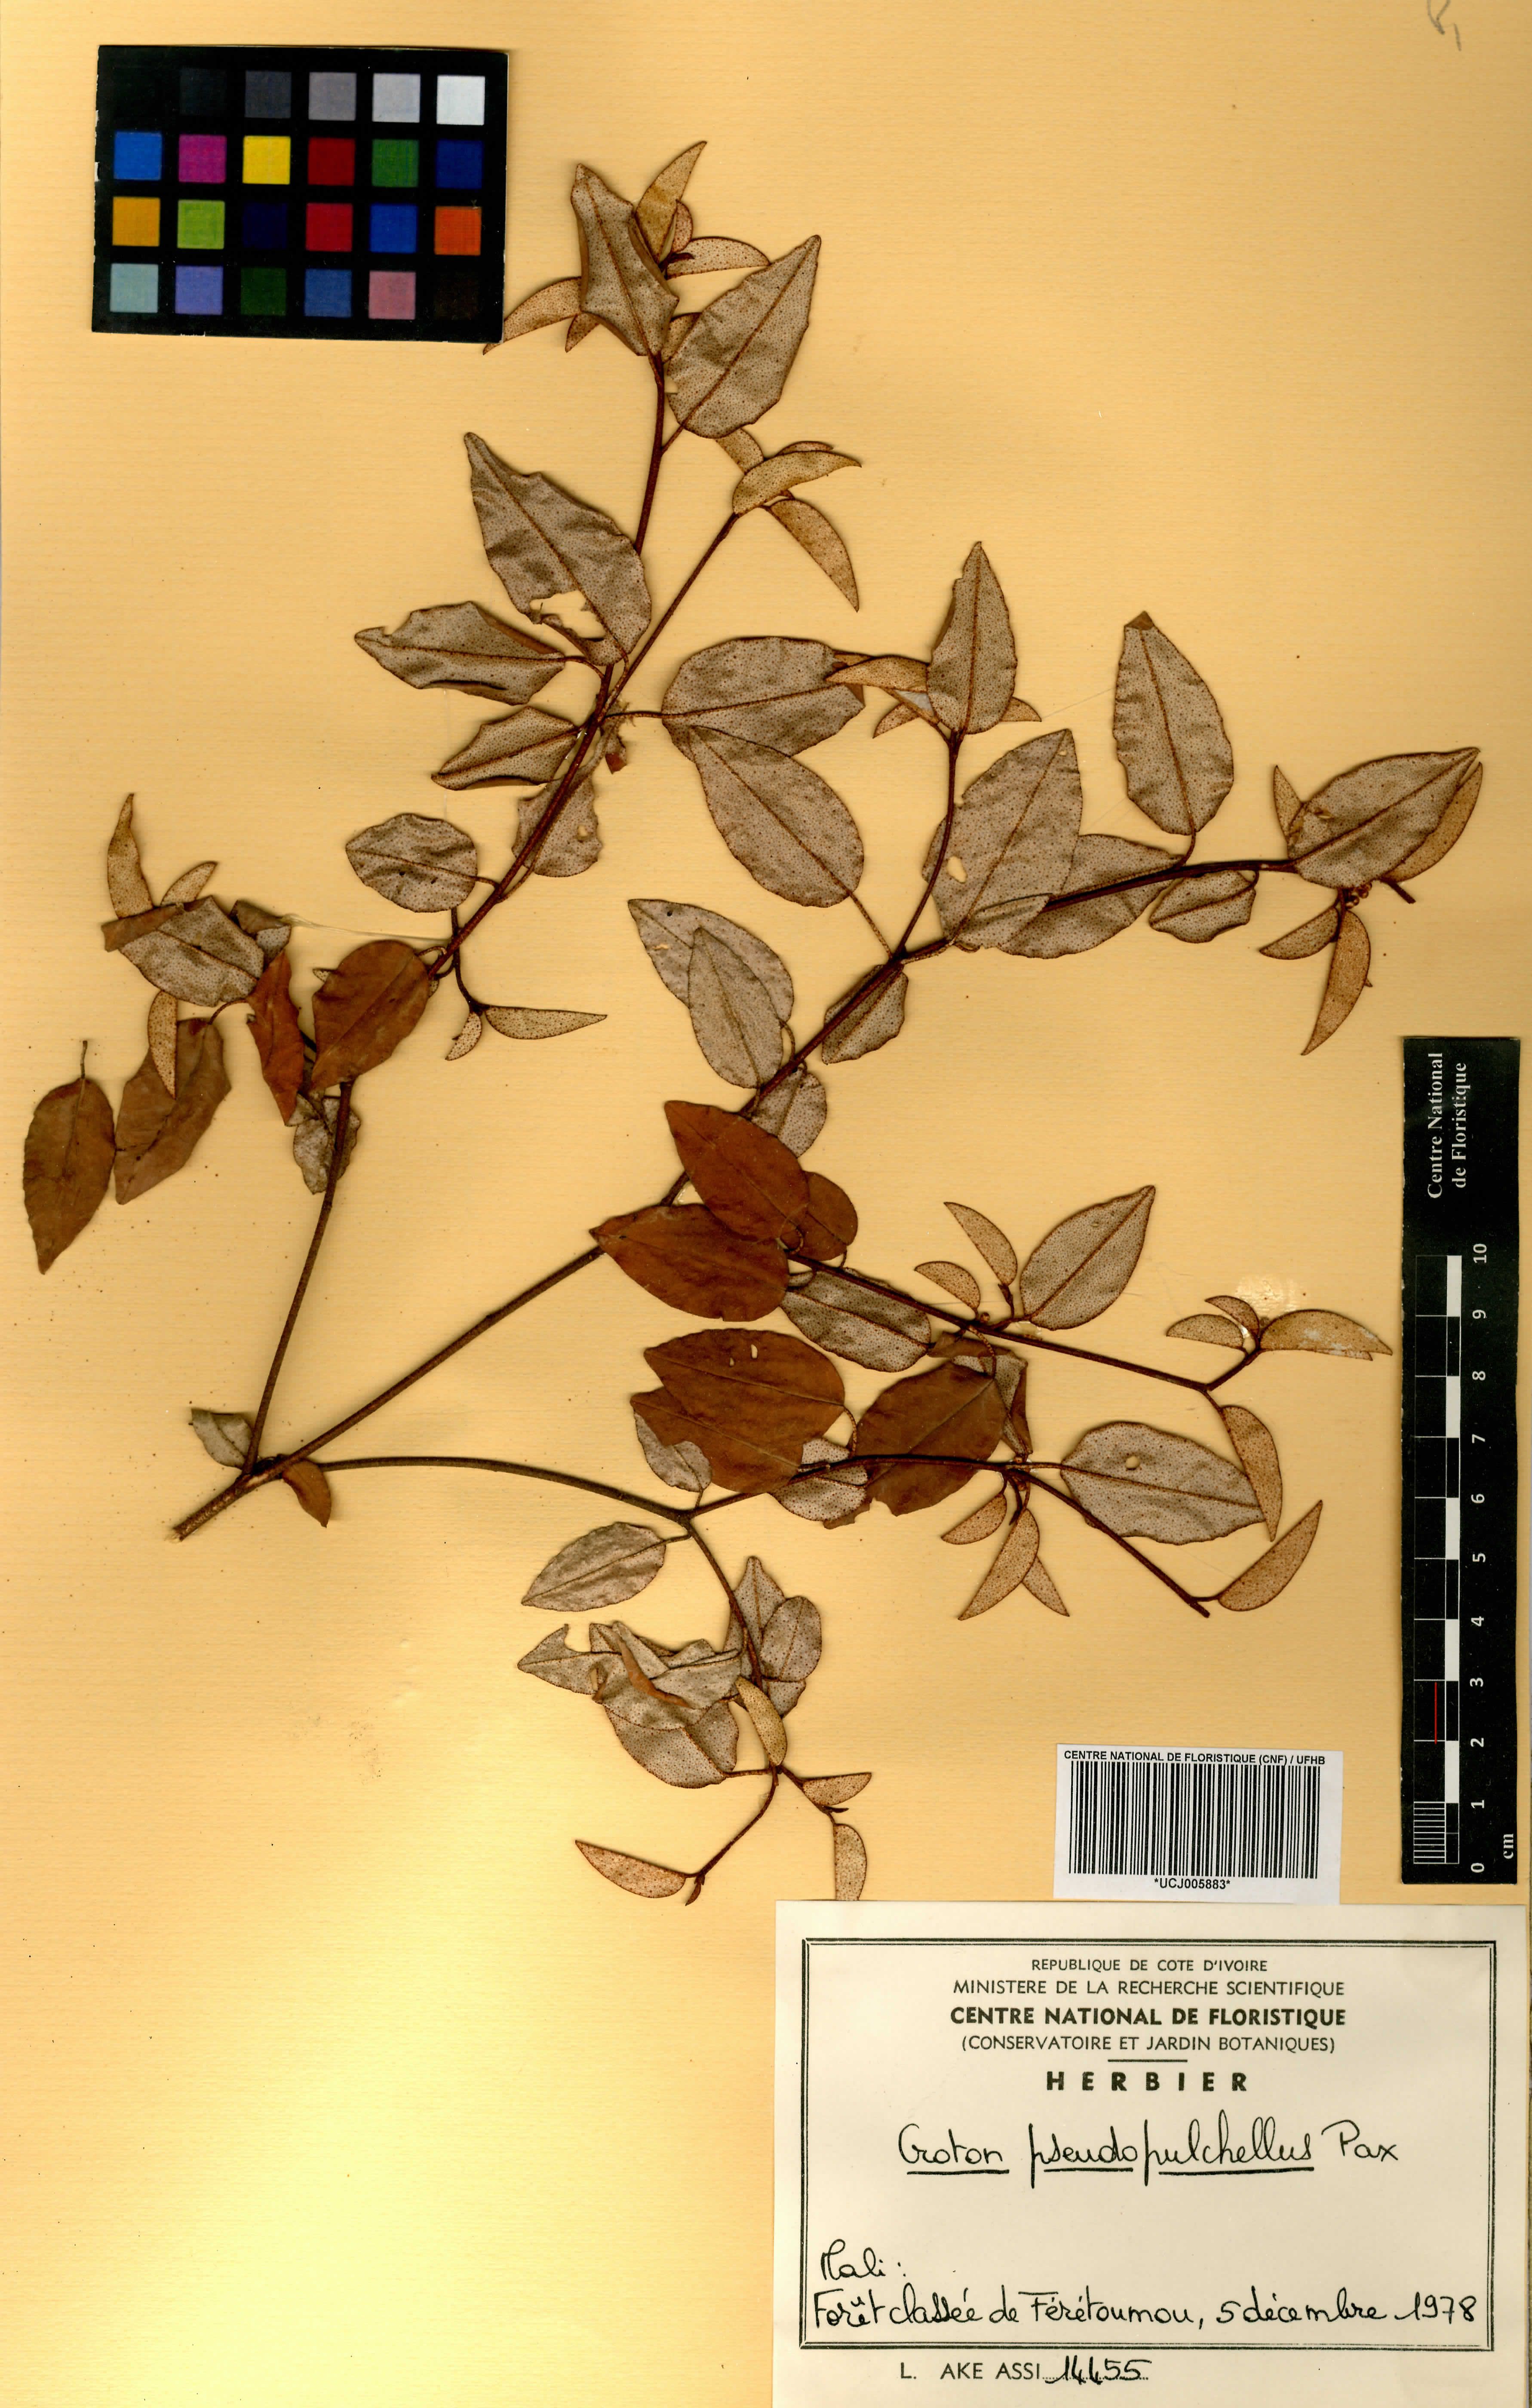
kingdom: Plantae
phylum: Tracheophyta
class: Magnoliopsida
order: Malpighiales
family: Euphorbiaceae
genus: Croton
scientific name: Croton pseudopulchellus
